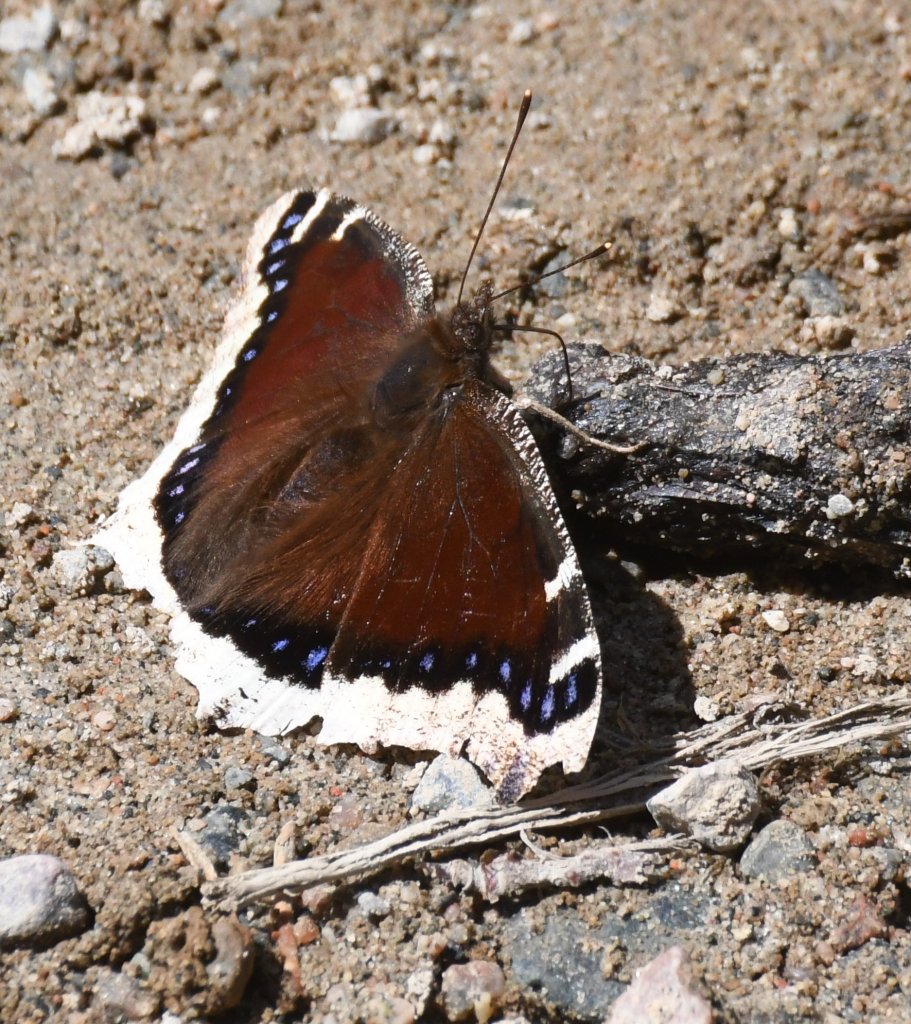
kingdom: Animalia
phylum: Arthropoda
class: Insecta
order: Lepidoptera
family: Nymphalidae
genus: Nymphalis
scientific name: Nymphalis antiopa
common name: Mourning Cloak
